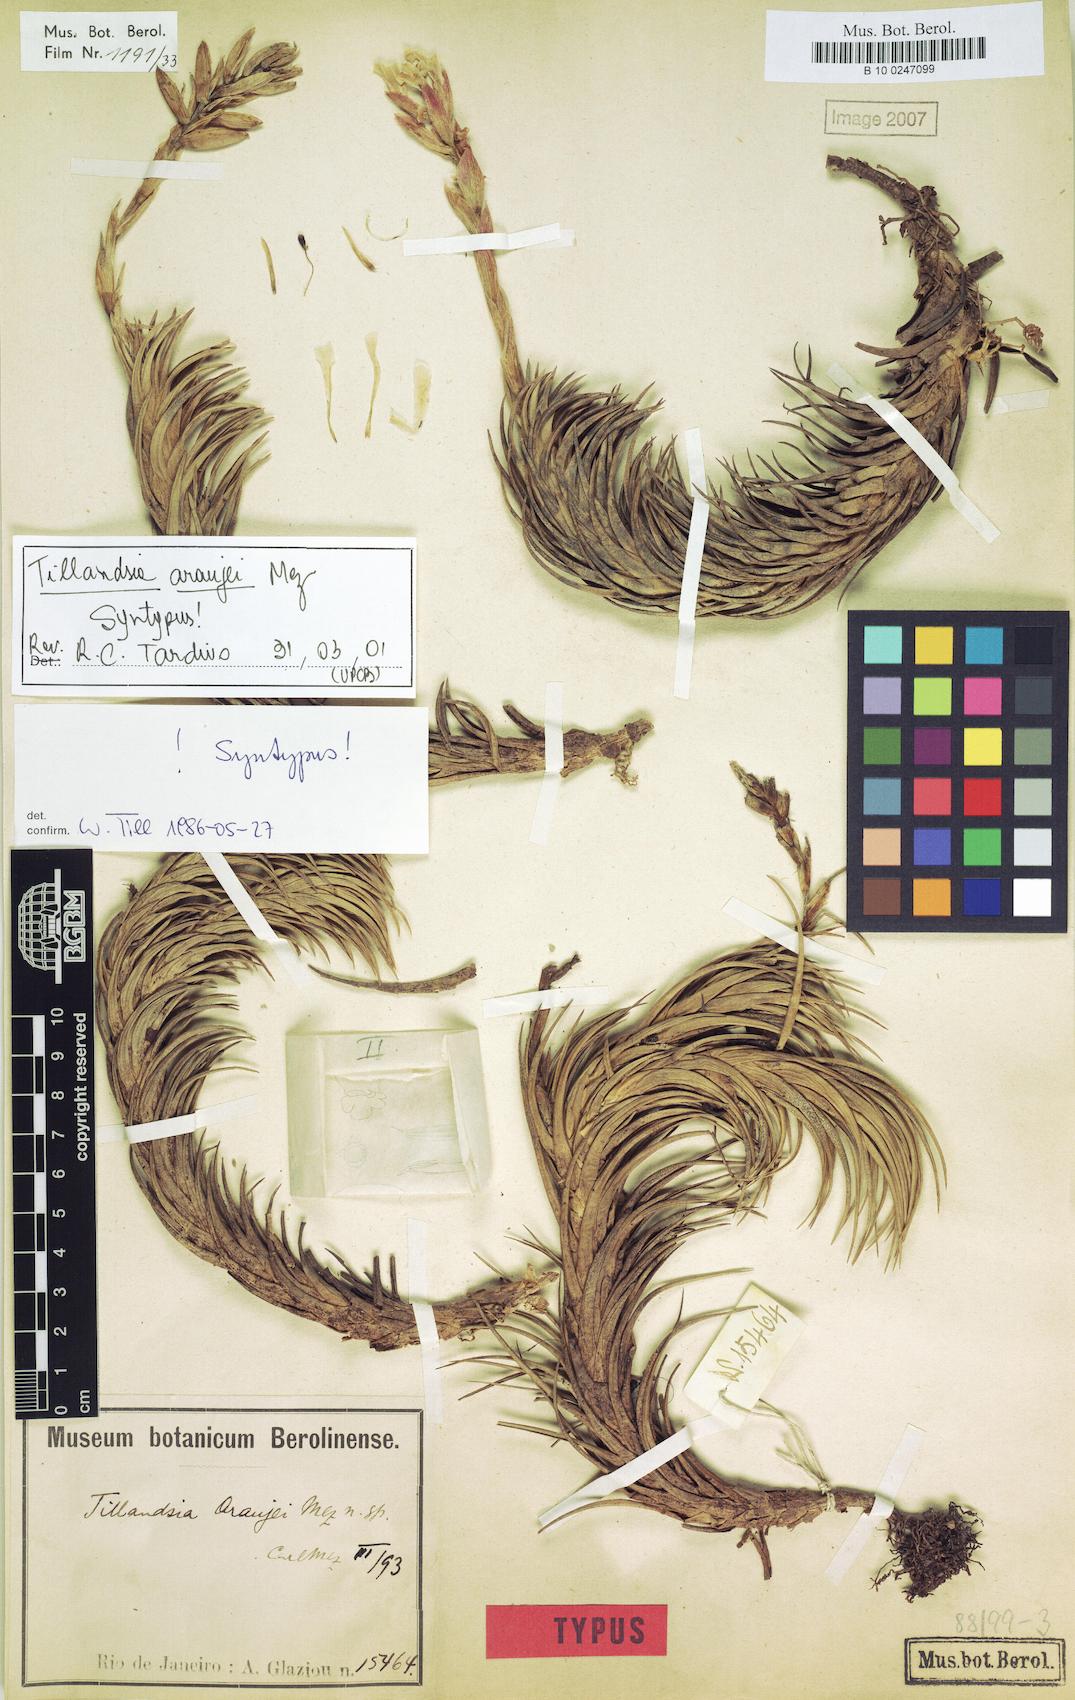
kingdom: Plantae
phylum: Tracheophyta
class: Liliopsida
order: Poales
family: Bromeliaceae
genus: Tillandsia
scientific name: Tillandsia araujei
